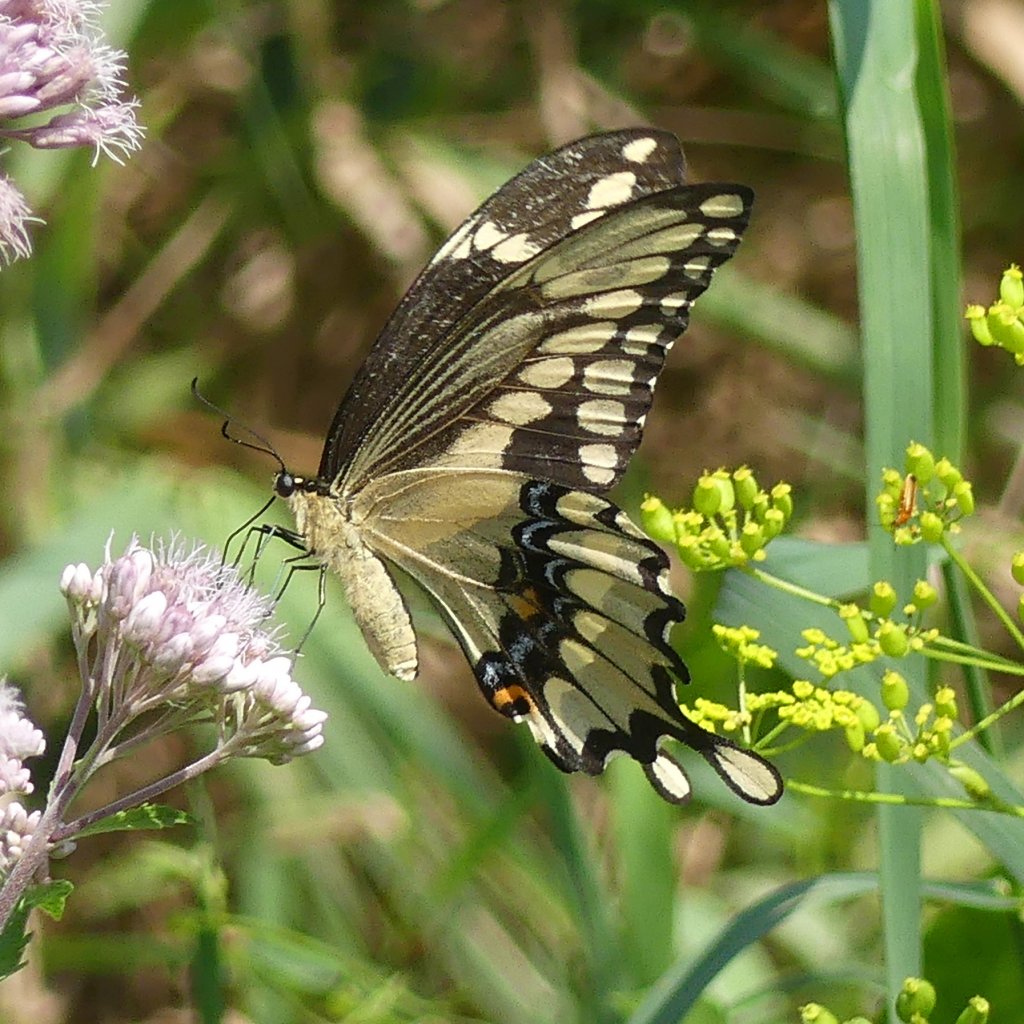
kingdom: Animalia
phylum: Arthropoda
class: Insecta
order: Lepidoptera
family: Papilionidae
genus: Papilio
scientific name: Papilio cresphontes
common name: Eastern Giant Swallowtail
